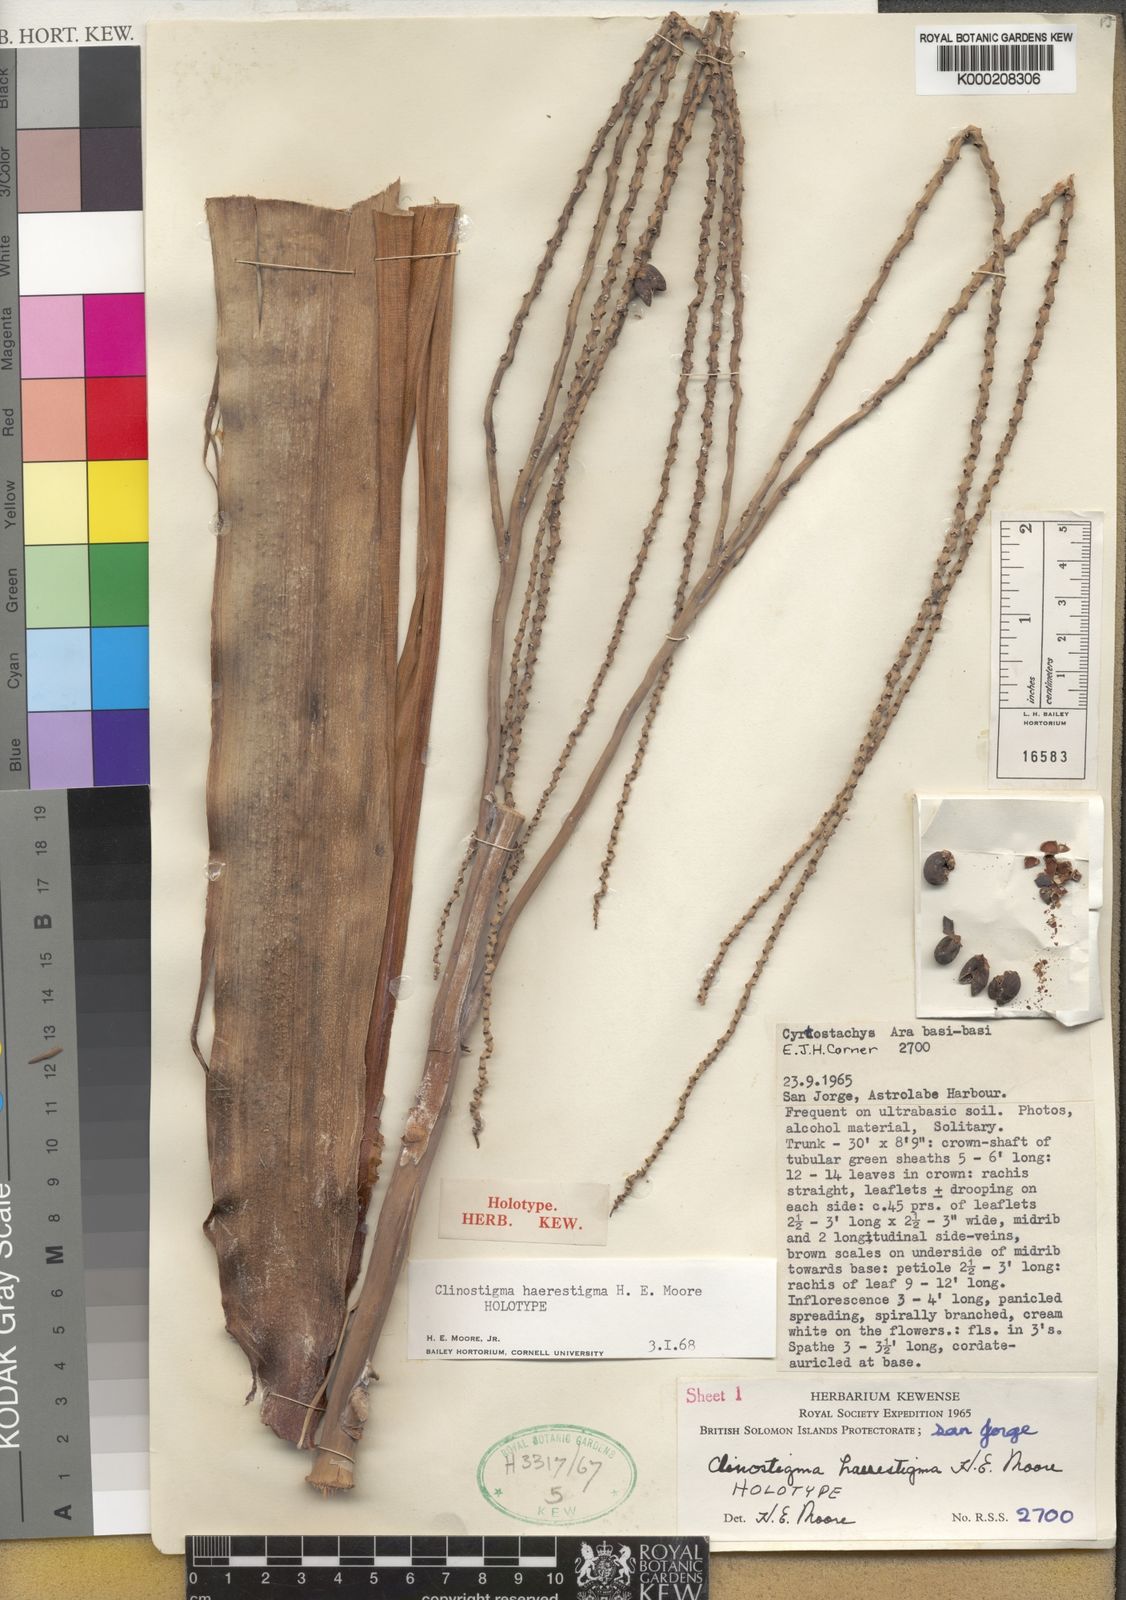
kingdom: Plantae
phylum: Tracheophyta
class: Liliopsida
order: Arecales
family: Arecaceae
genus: Clinostigma
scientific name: Clinostigma haerestigma
